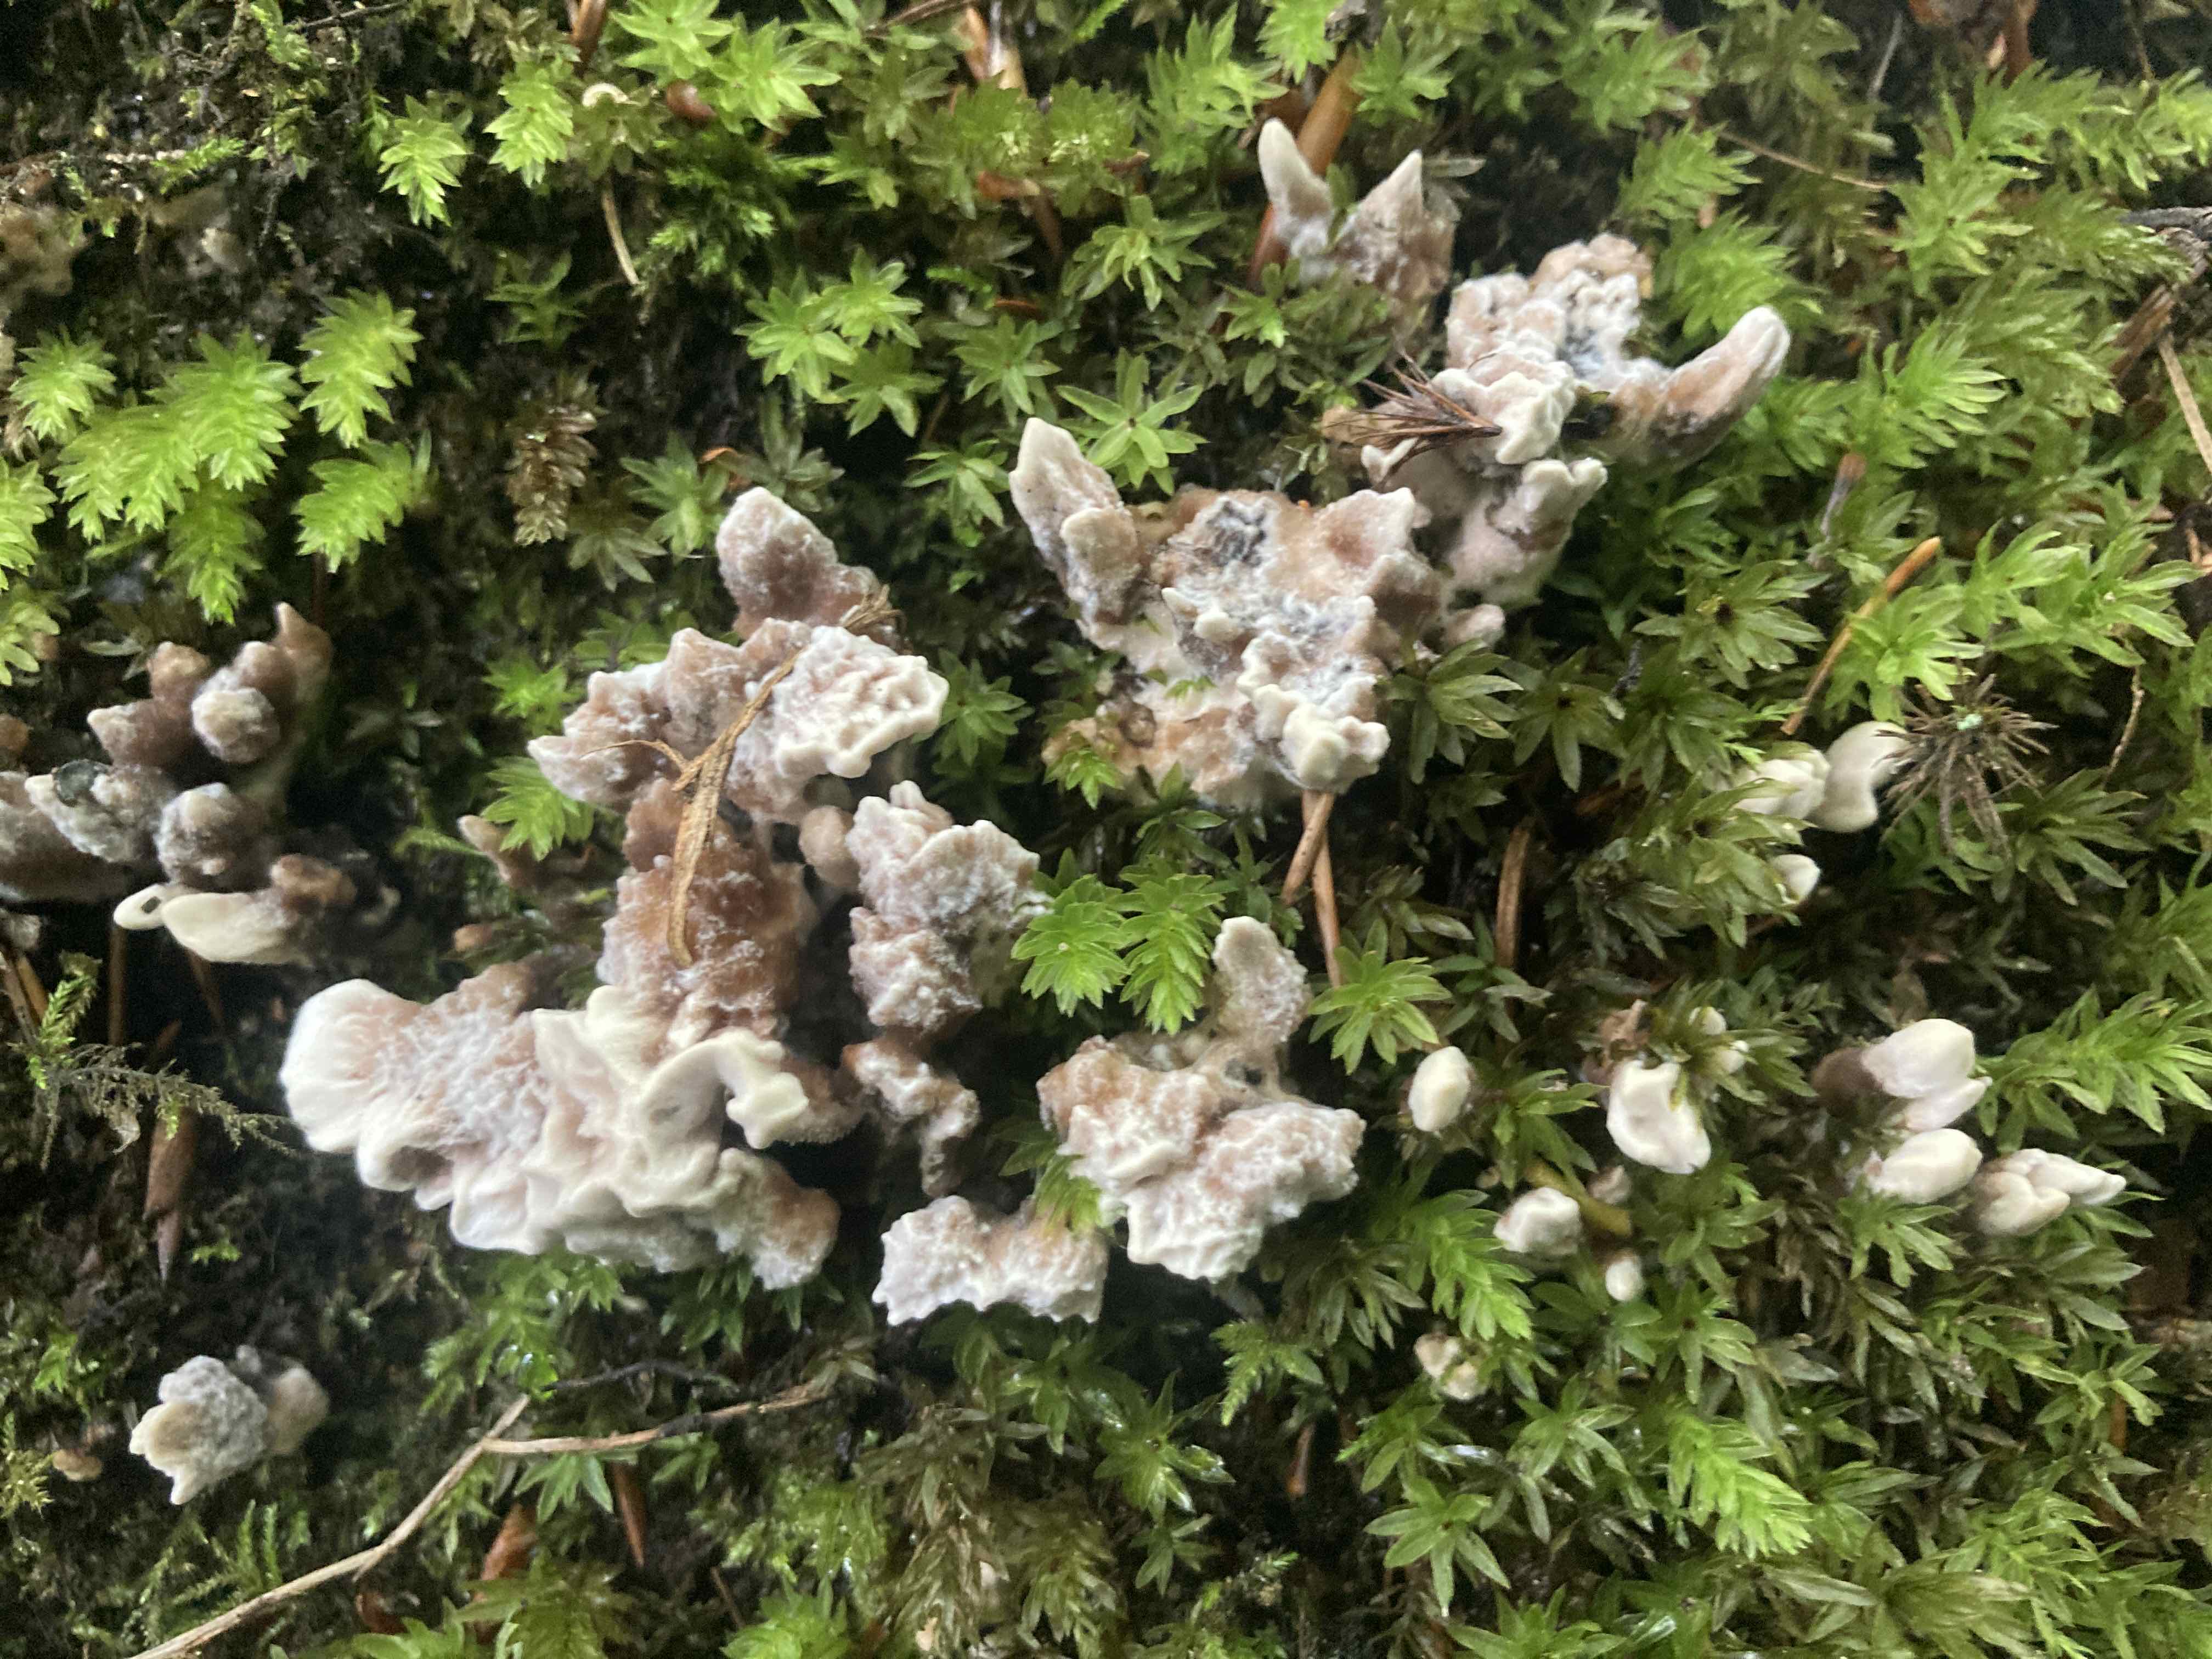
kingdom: Fungi
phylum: Basidiomycota
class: Agaricomycetes
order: Thelephorales
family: Thelephoraceae
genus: Phellodon
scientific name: Phellodon confluens
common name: pjaltet duftpigsvamp
